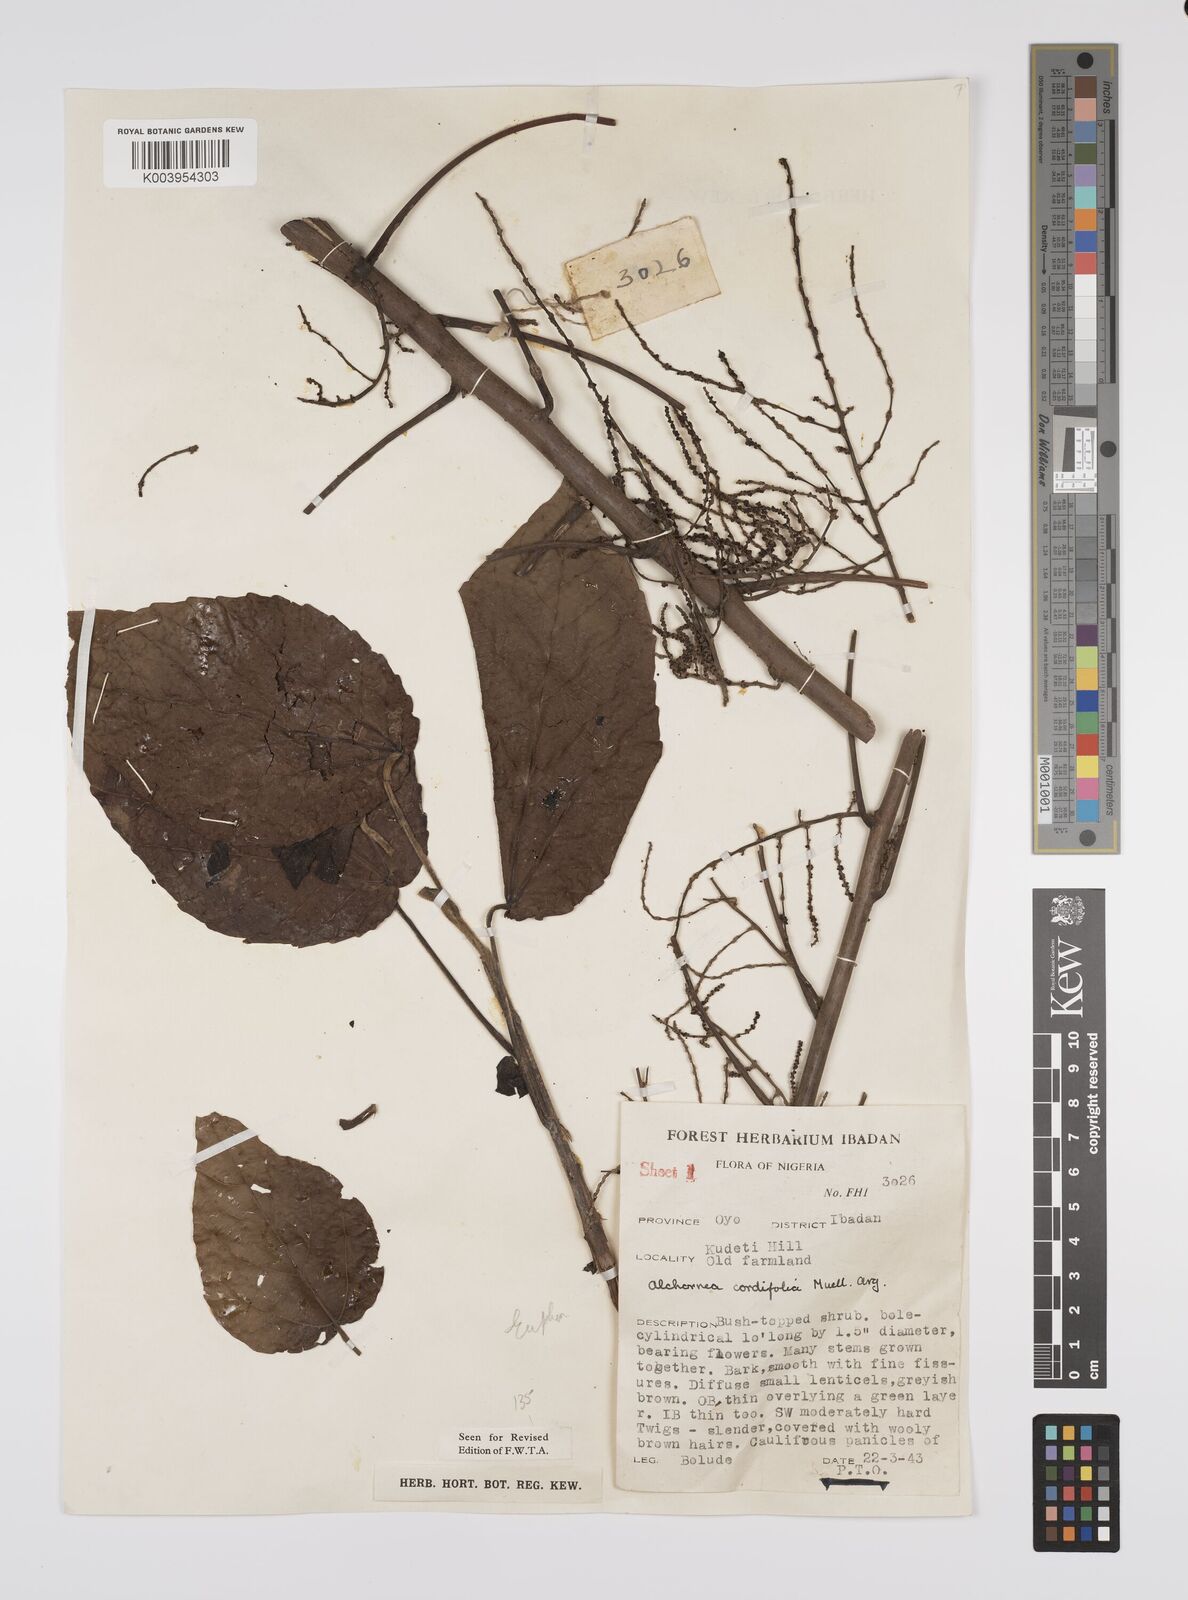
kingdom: Plantae
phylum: Tracheophyta
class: Magnoliopsida
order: Malpighiales
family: Euphorbiaceae
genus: Alchornea
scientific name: Alchornea cordifolia
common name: Christmasbush
